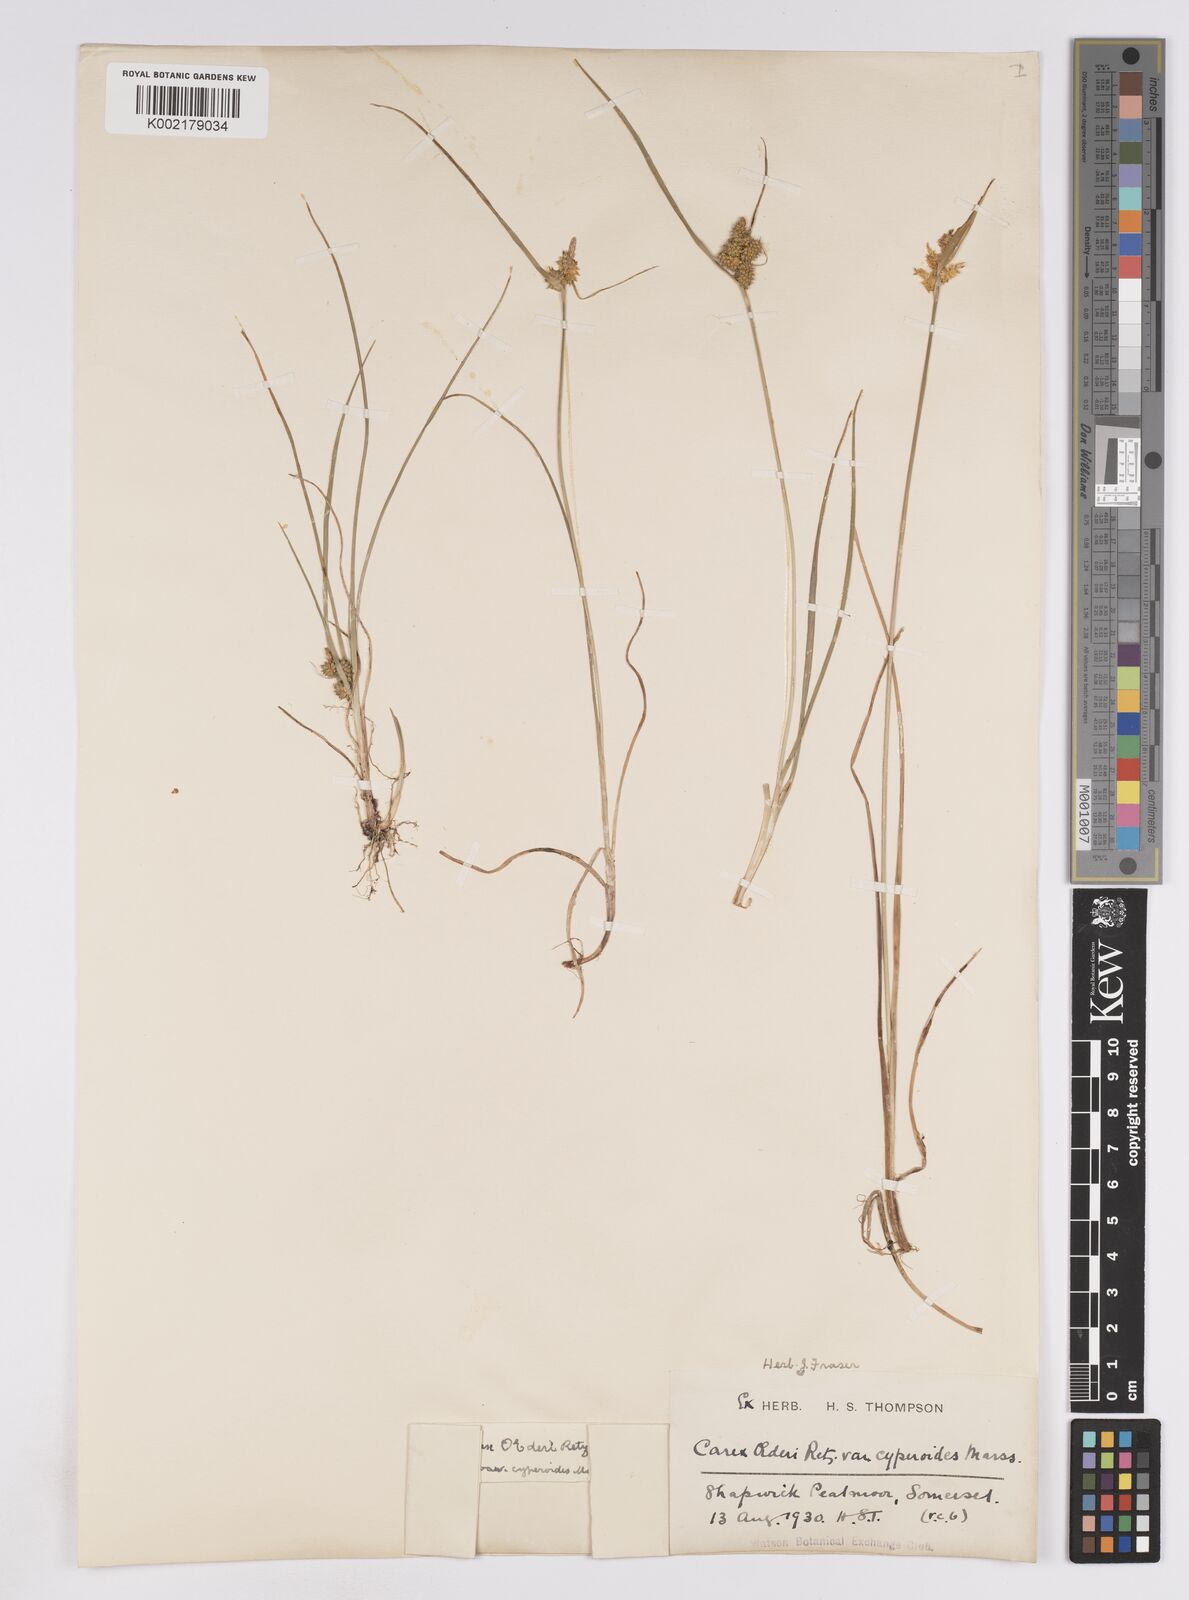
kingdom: Plantae
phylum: Tracheophyta
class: Liliopsida
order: Poales
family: Cyperaceae
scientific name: Cyperaceae
